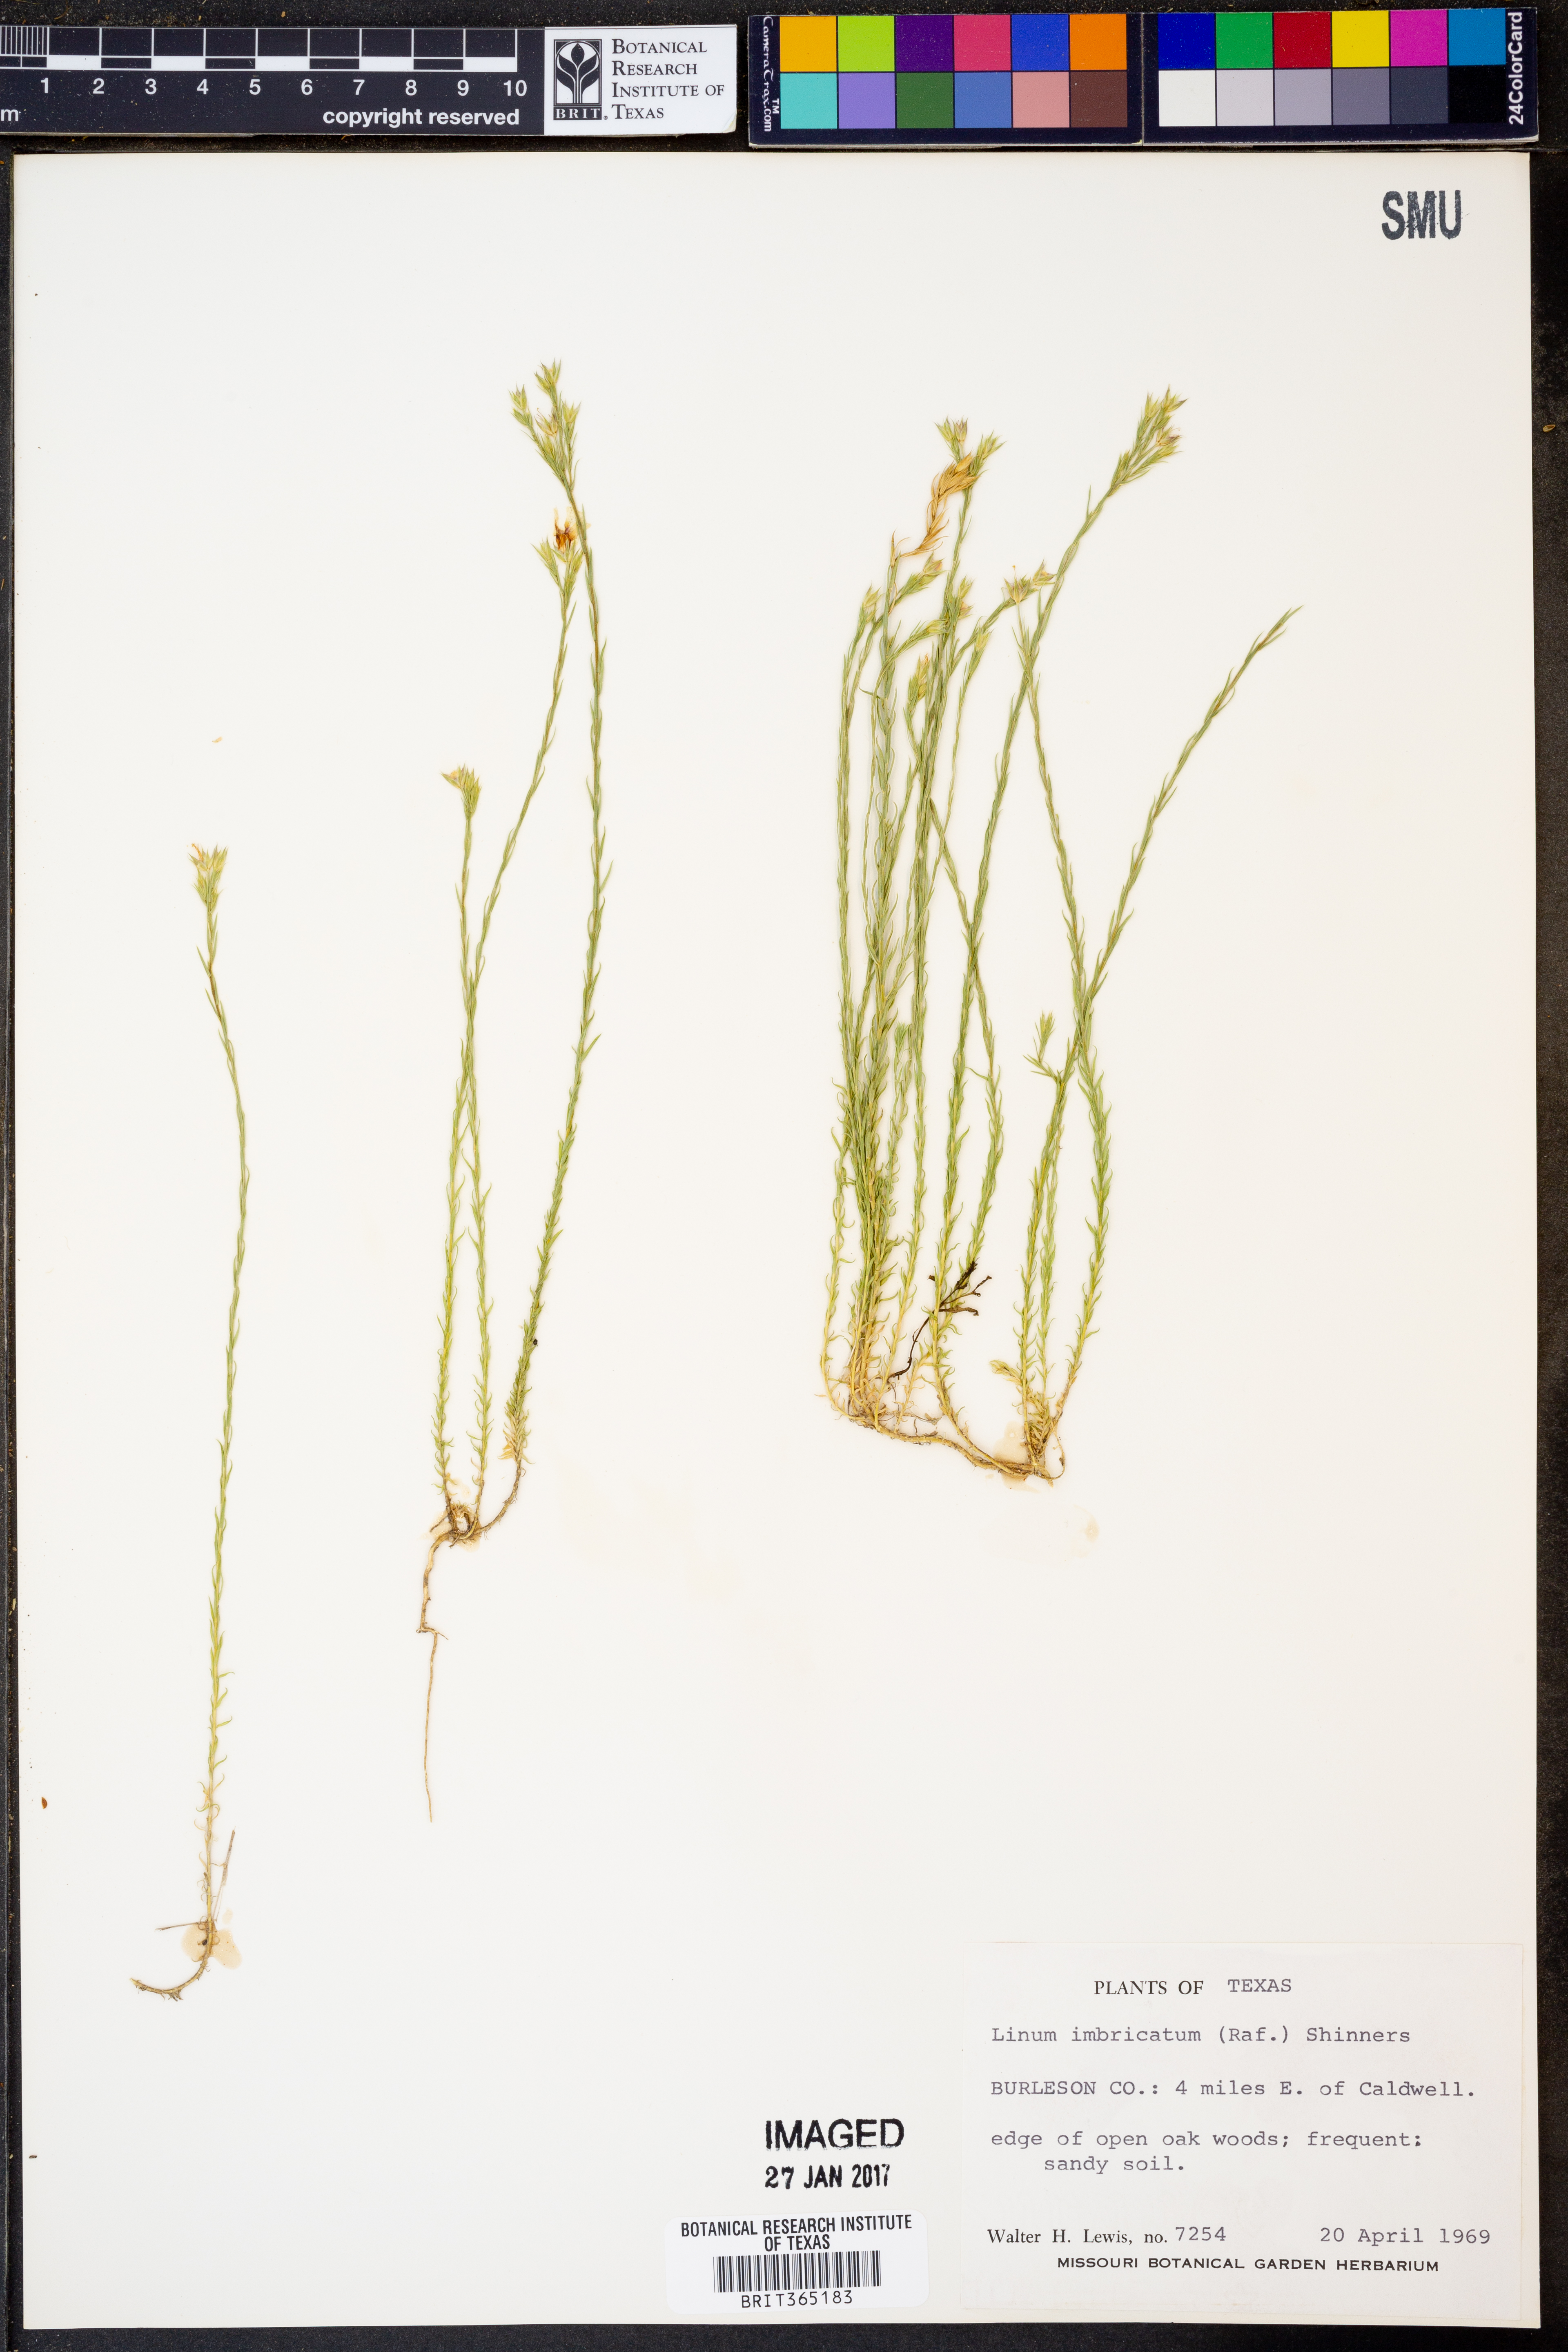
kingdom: Plantae
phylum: Tracheophyta
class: Magnoliopsida
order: Malpighiales
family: Linaceae
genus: Linum
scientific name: Linum imbricatum
